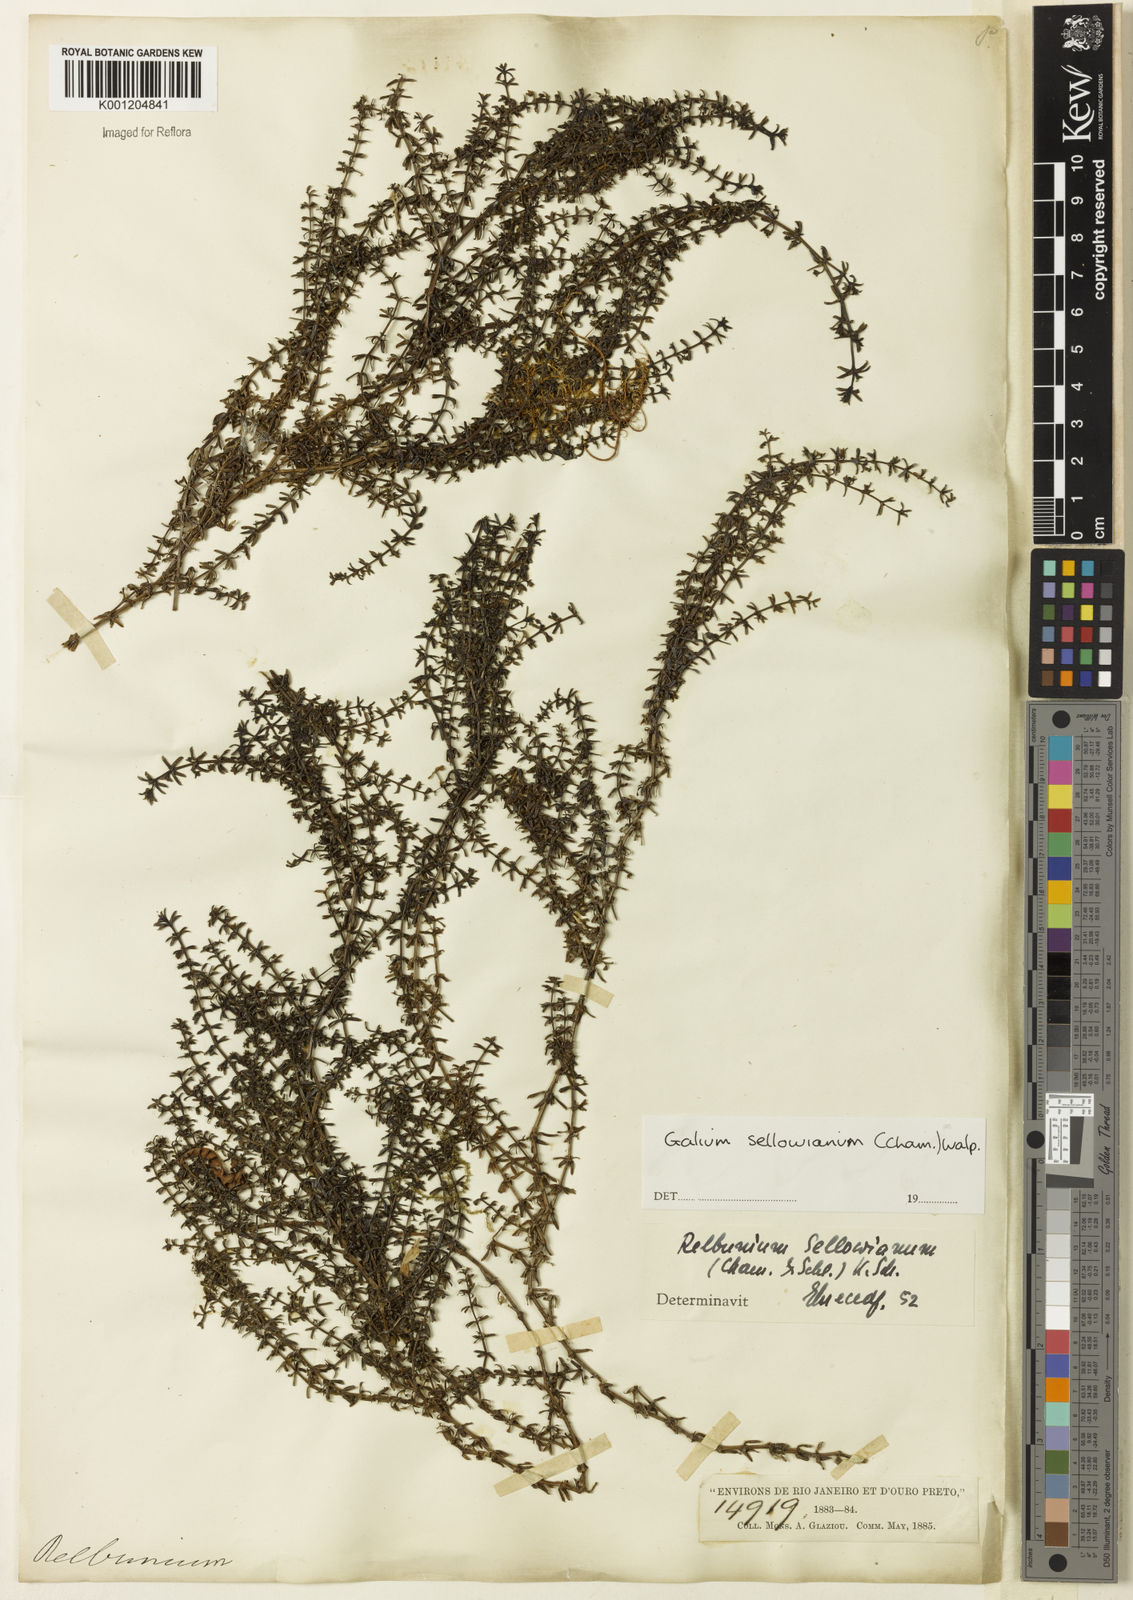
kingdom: Plantae
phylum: Tracheophyta
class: Magnoliopsida
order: Gentianales
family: Rubiaceae
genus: Galium
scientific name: Galium sellowianum
